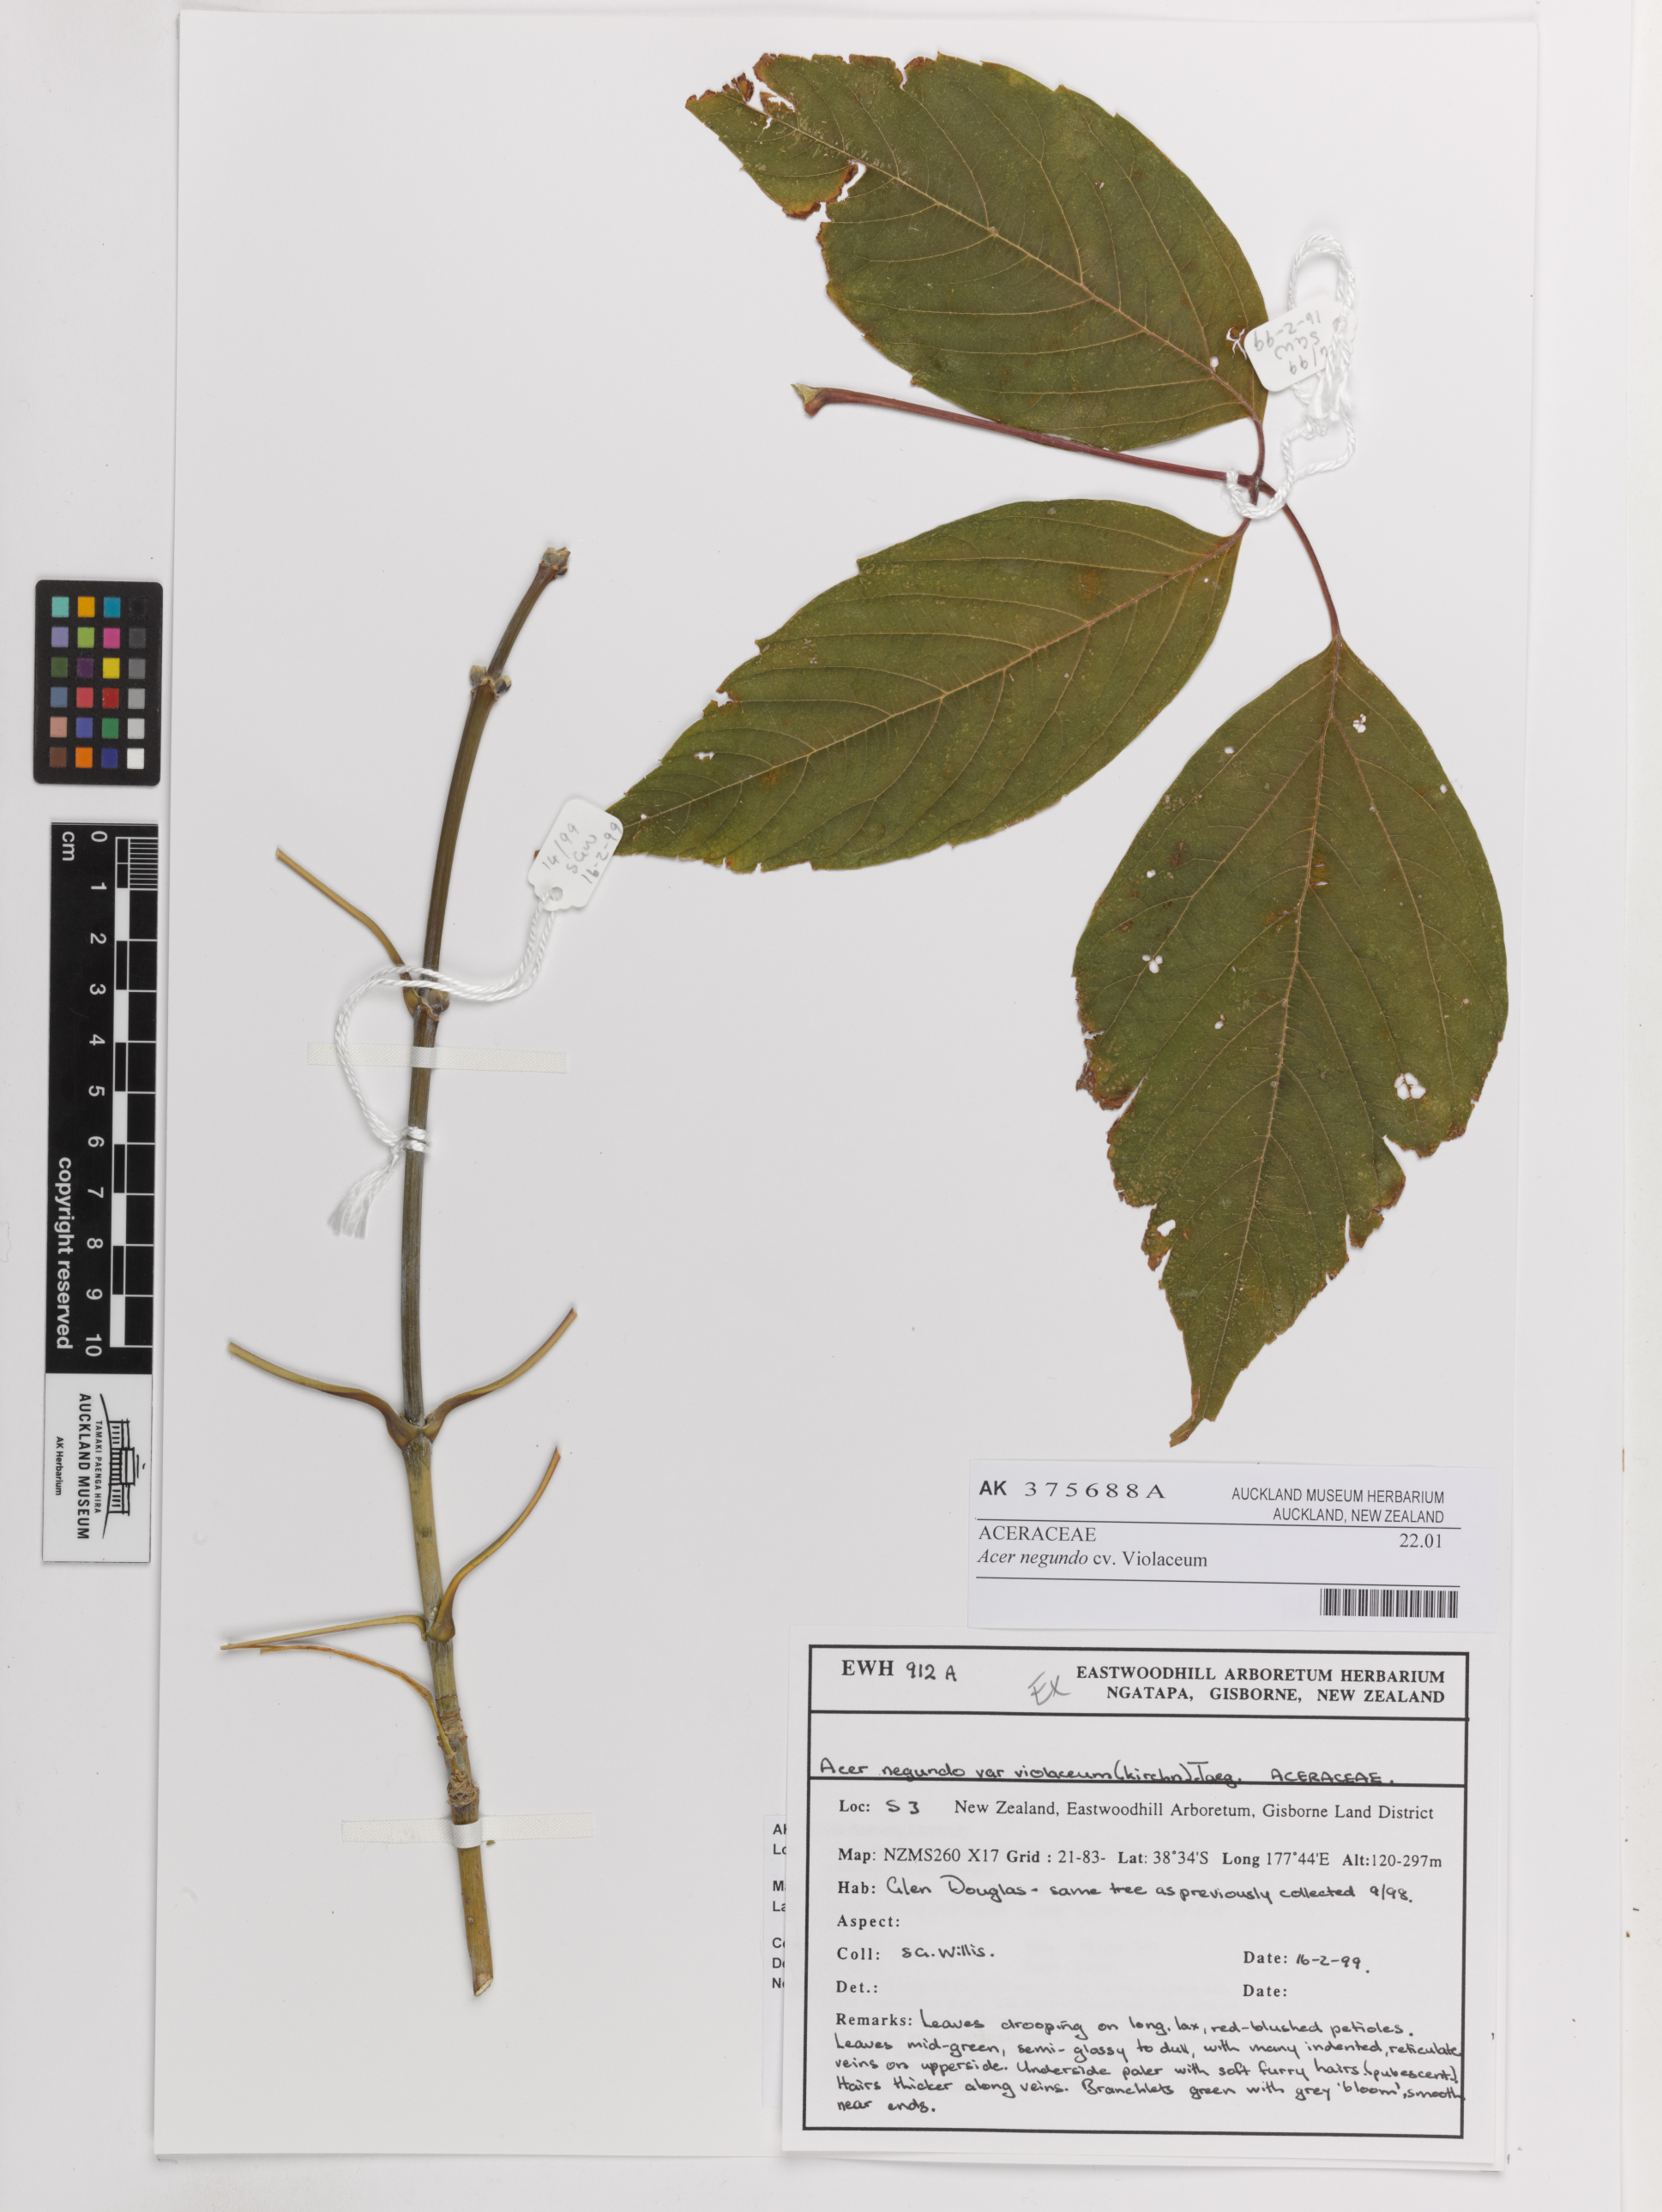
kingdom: Plantae
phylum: Tracheophyta
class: Magnoliopsida
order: Sapindales
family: Sapindaceae
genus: Acer
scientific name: Acer negundo
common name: Ashleaf maple
